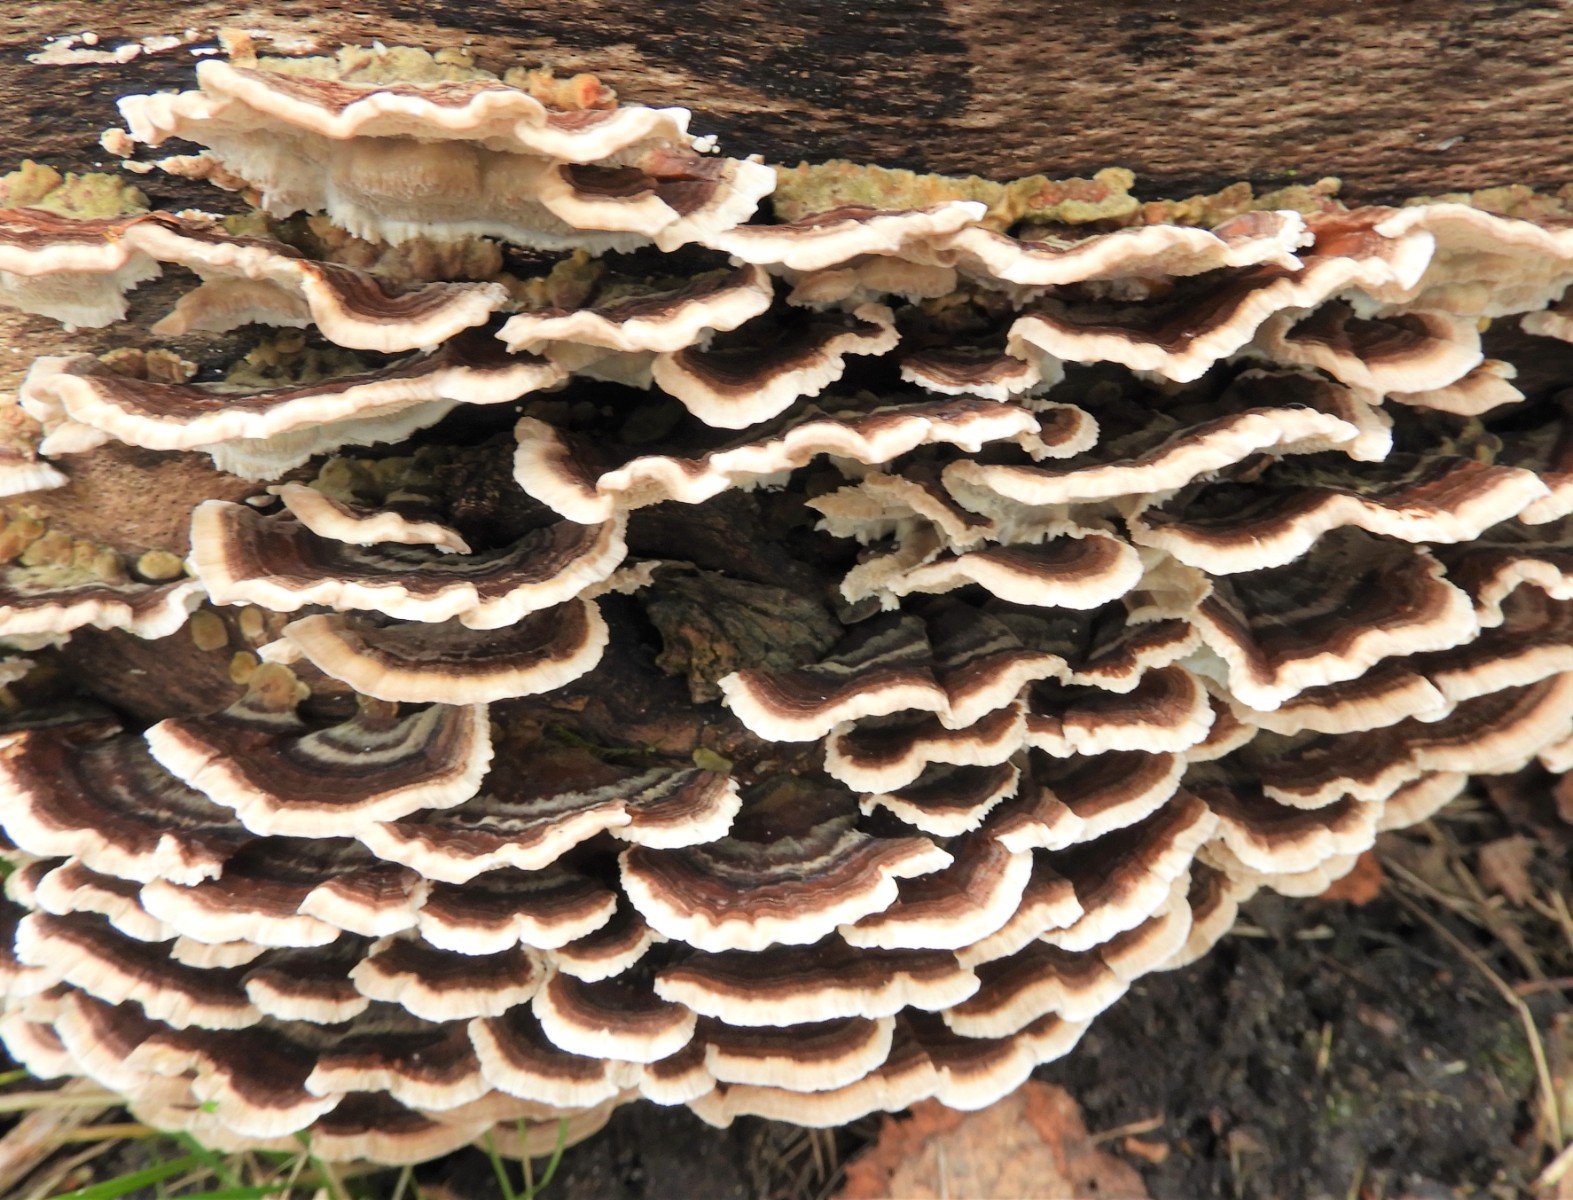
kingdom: Fungi
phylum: Basidiomycota
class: Agaricomycetes
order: Polyporales
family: Polyporaceae
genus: Trametes
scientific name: Trametes versicolor
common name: broget læderporesvamp
